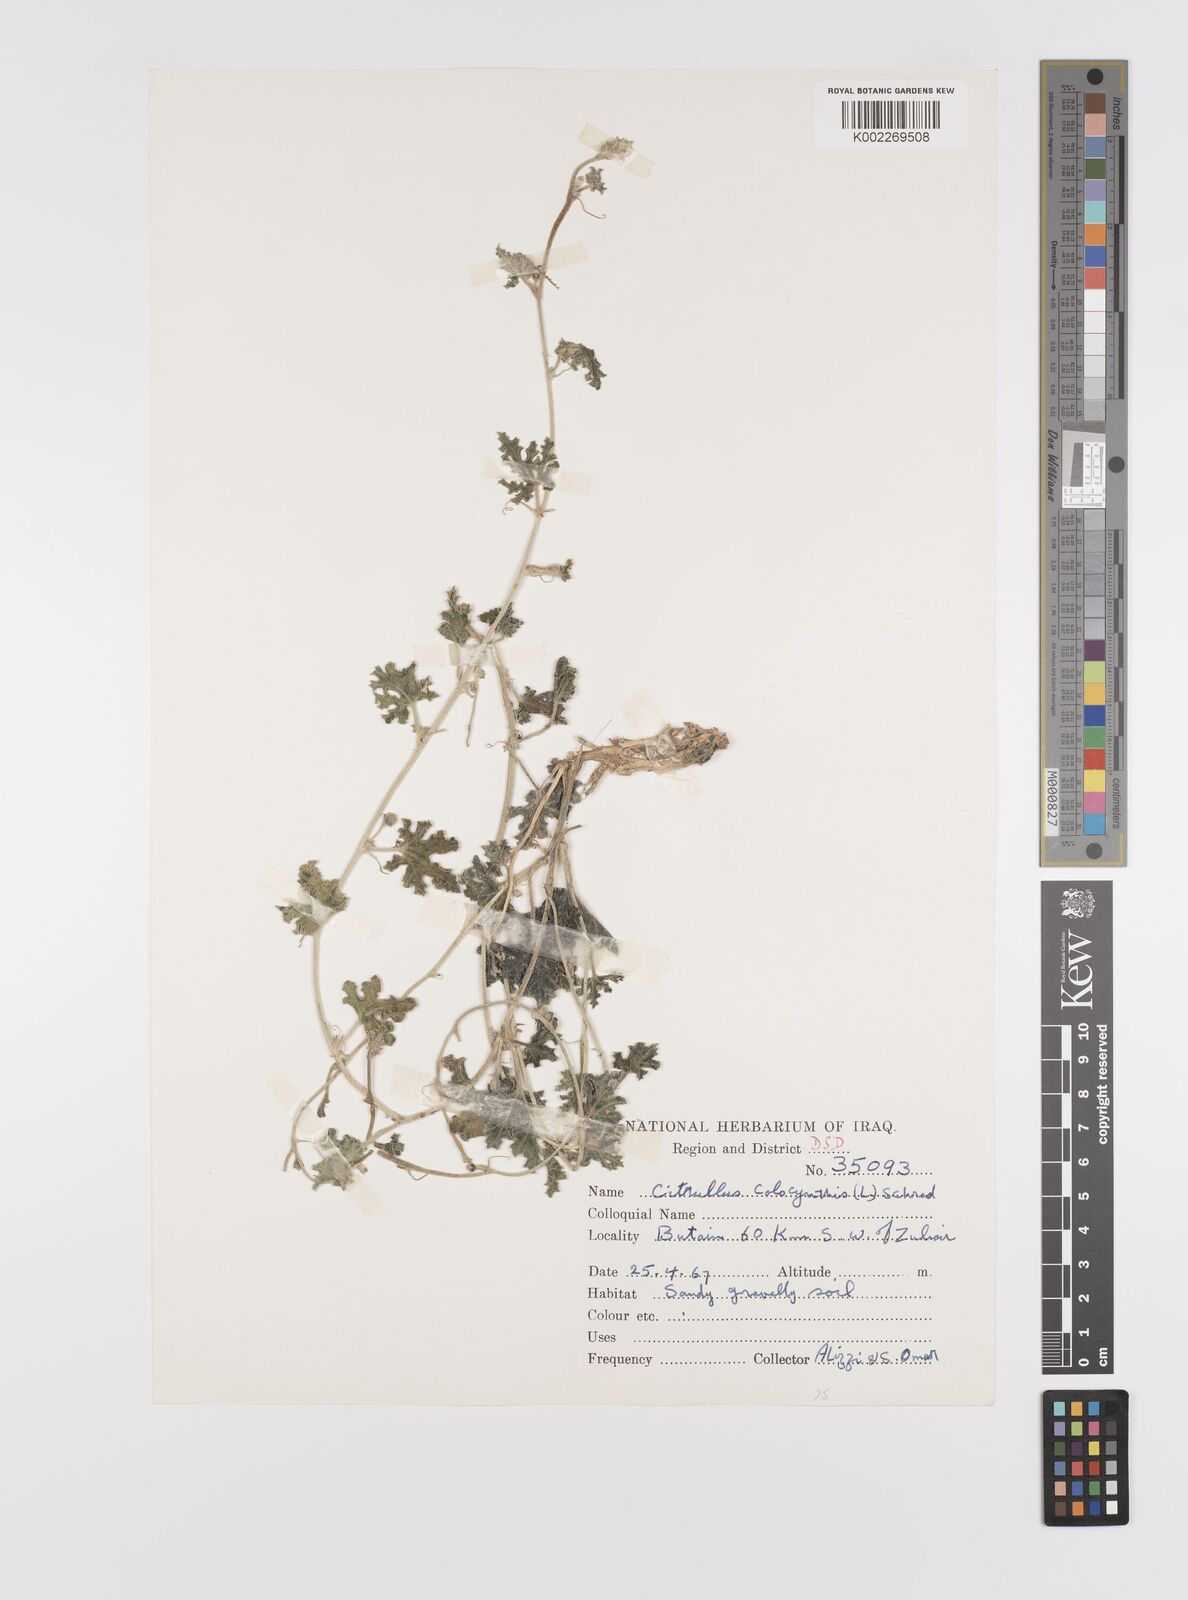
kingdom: Plantae
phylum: Tracheophyta
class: Magnoliopsida
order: Cucurbitales
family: Cucurbitaceae
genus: Citrullus
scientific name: Citrullus colocynthis
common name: Colocynth
